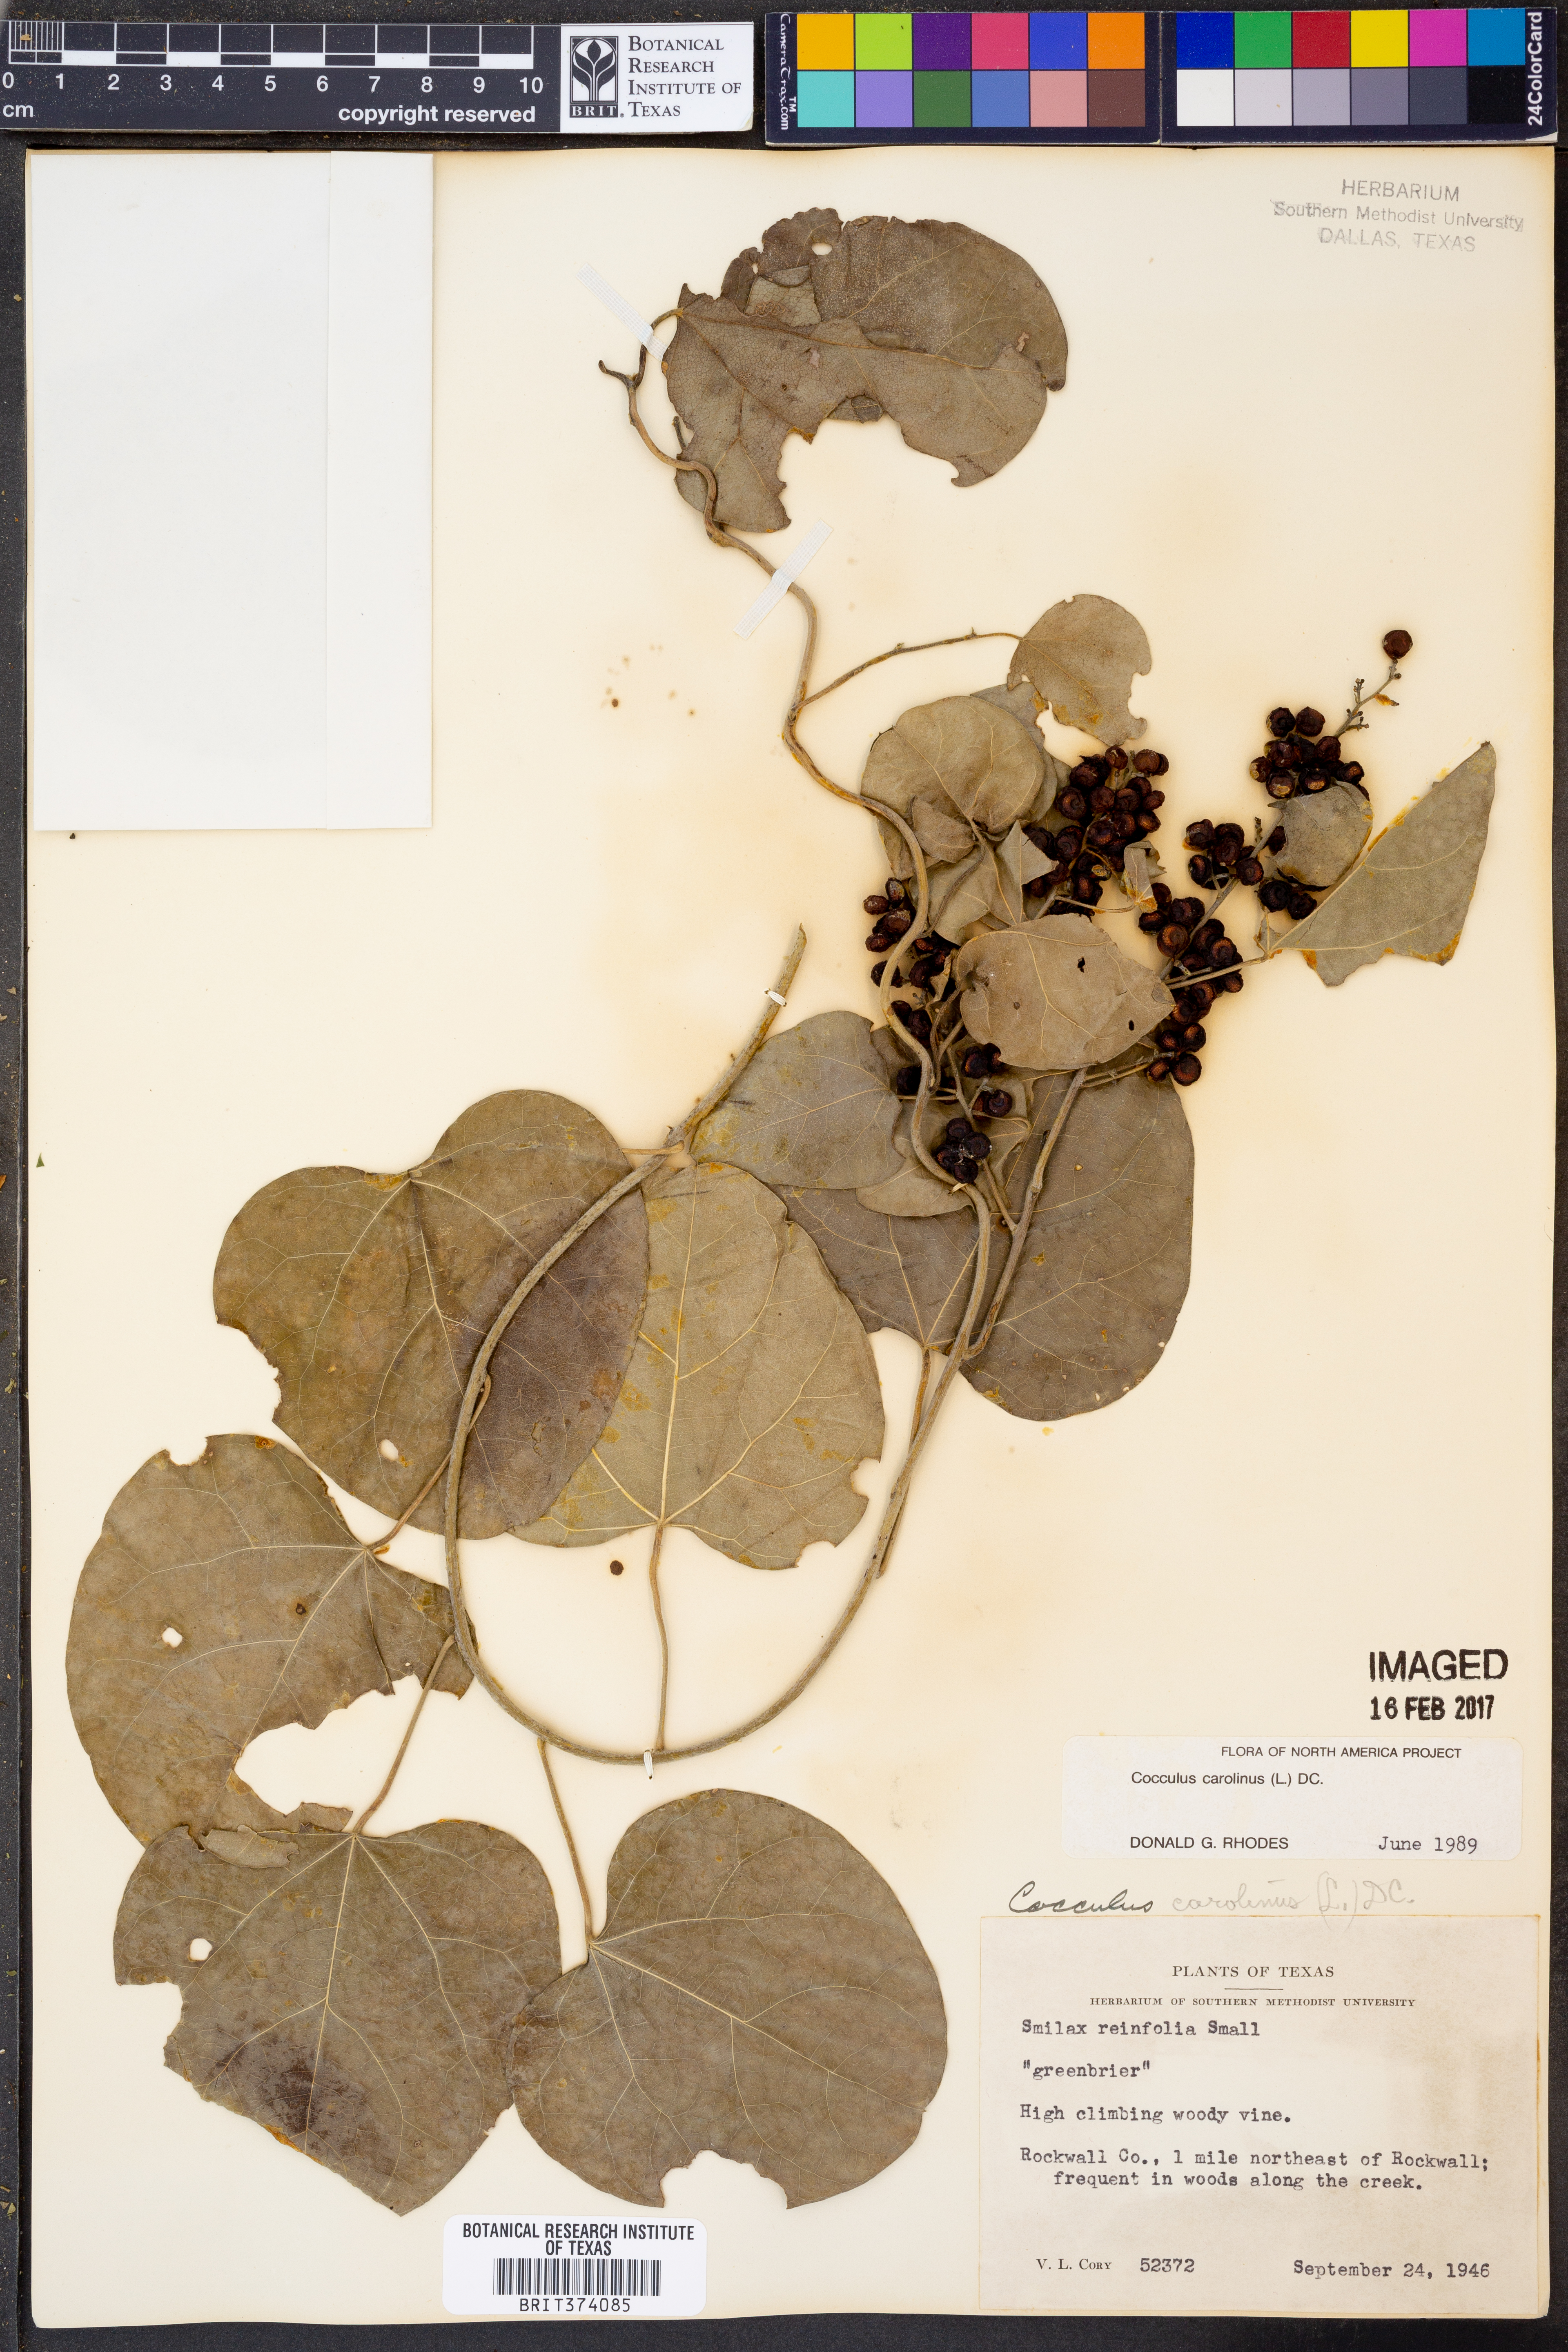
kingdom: Plantae
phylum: Tracheophyta
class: Magnoliopsida
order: Ranunculales
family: Menispermaceae
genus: Cocculus
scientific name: Cocculus carolinus
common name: Carolina moonseed
